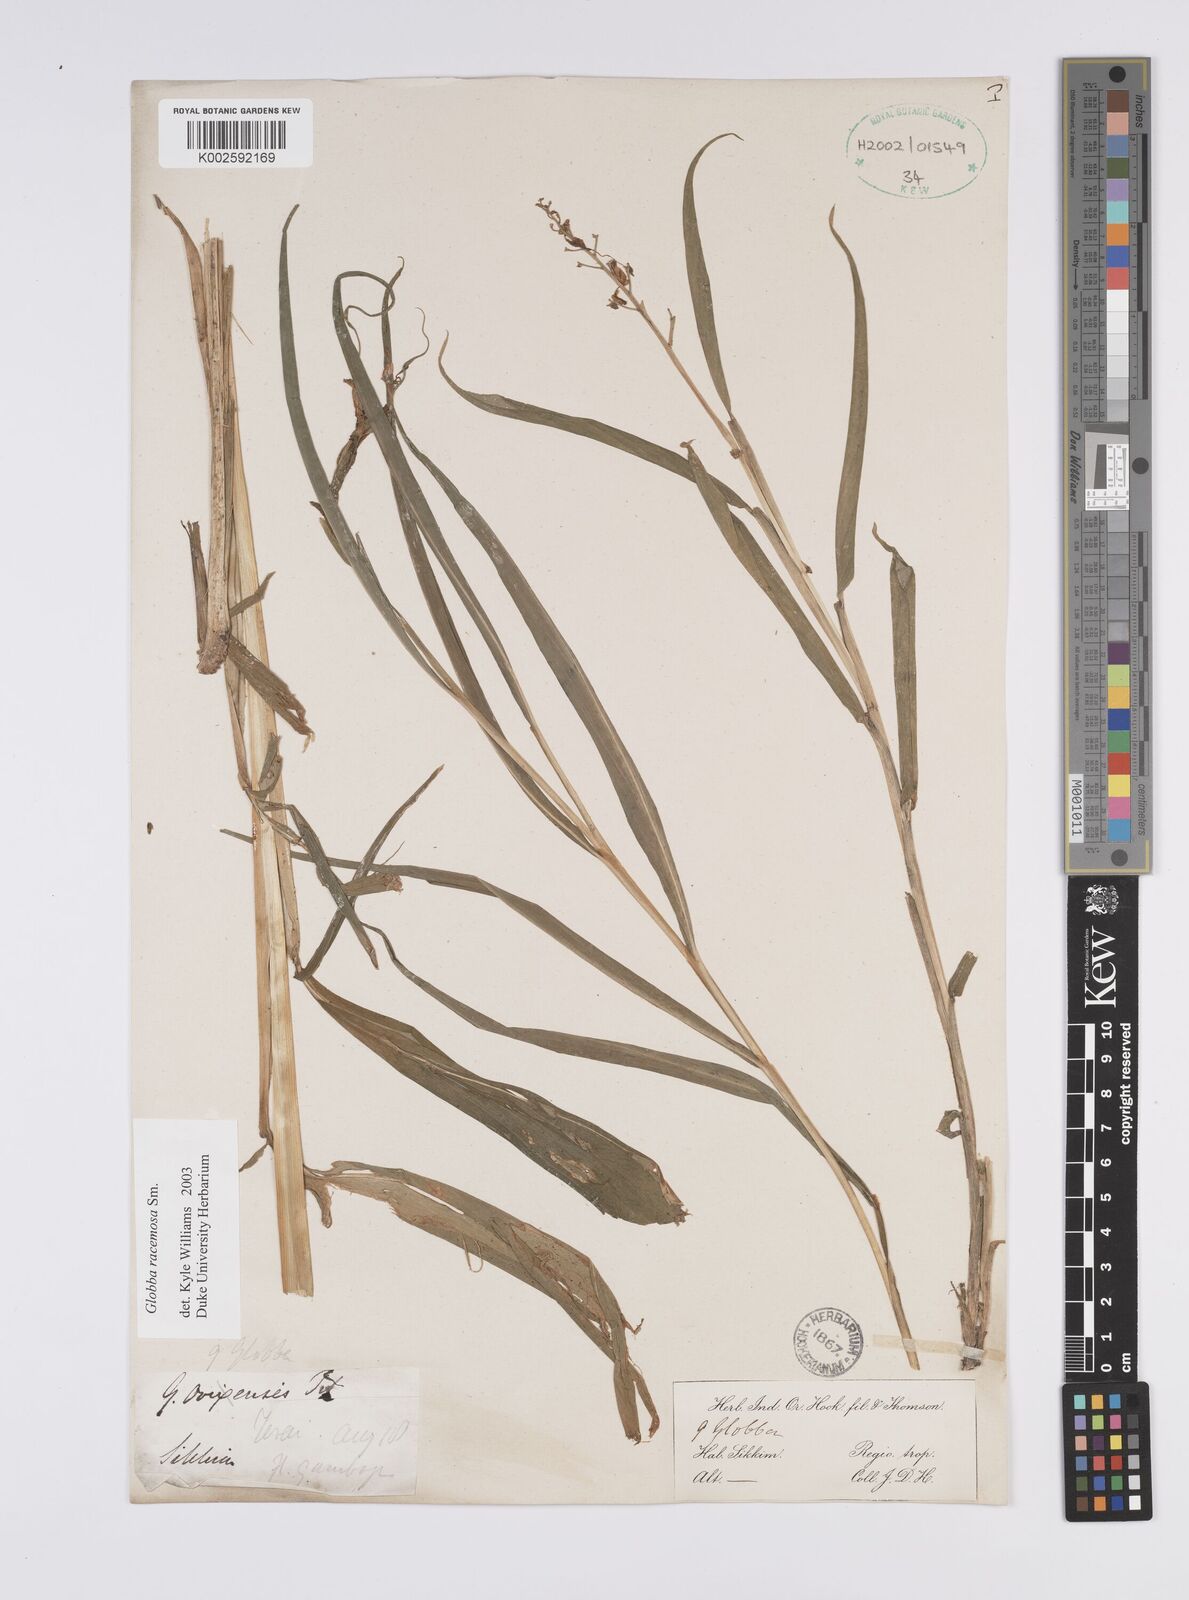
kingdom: Plantae
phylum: Tracheophyta
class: Liliopsida
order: Zingiberales
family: Zingiberaceae
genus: Globba
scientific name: Globba racemosa
